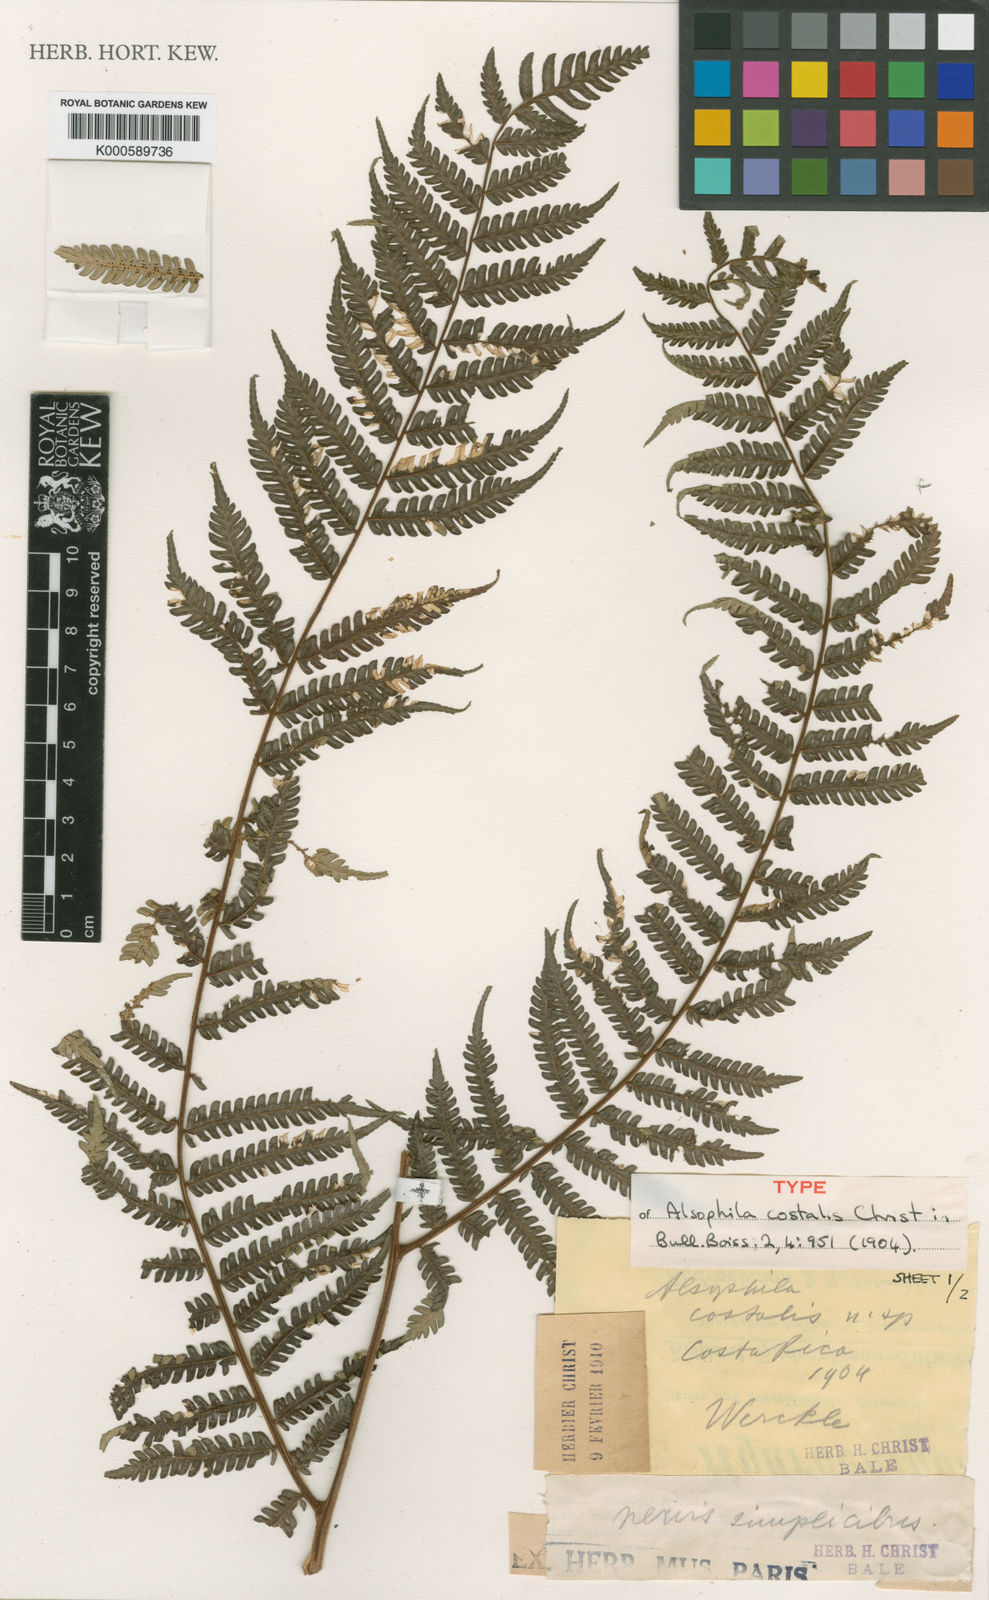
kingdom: Plantae
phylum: Tracheophyta
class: Polypodiopsida
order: Cyatheales
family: Cyatheaceae
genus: Cyathea
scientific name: Cyathea
